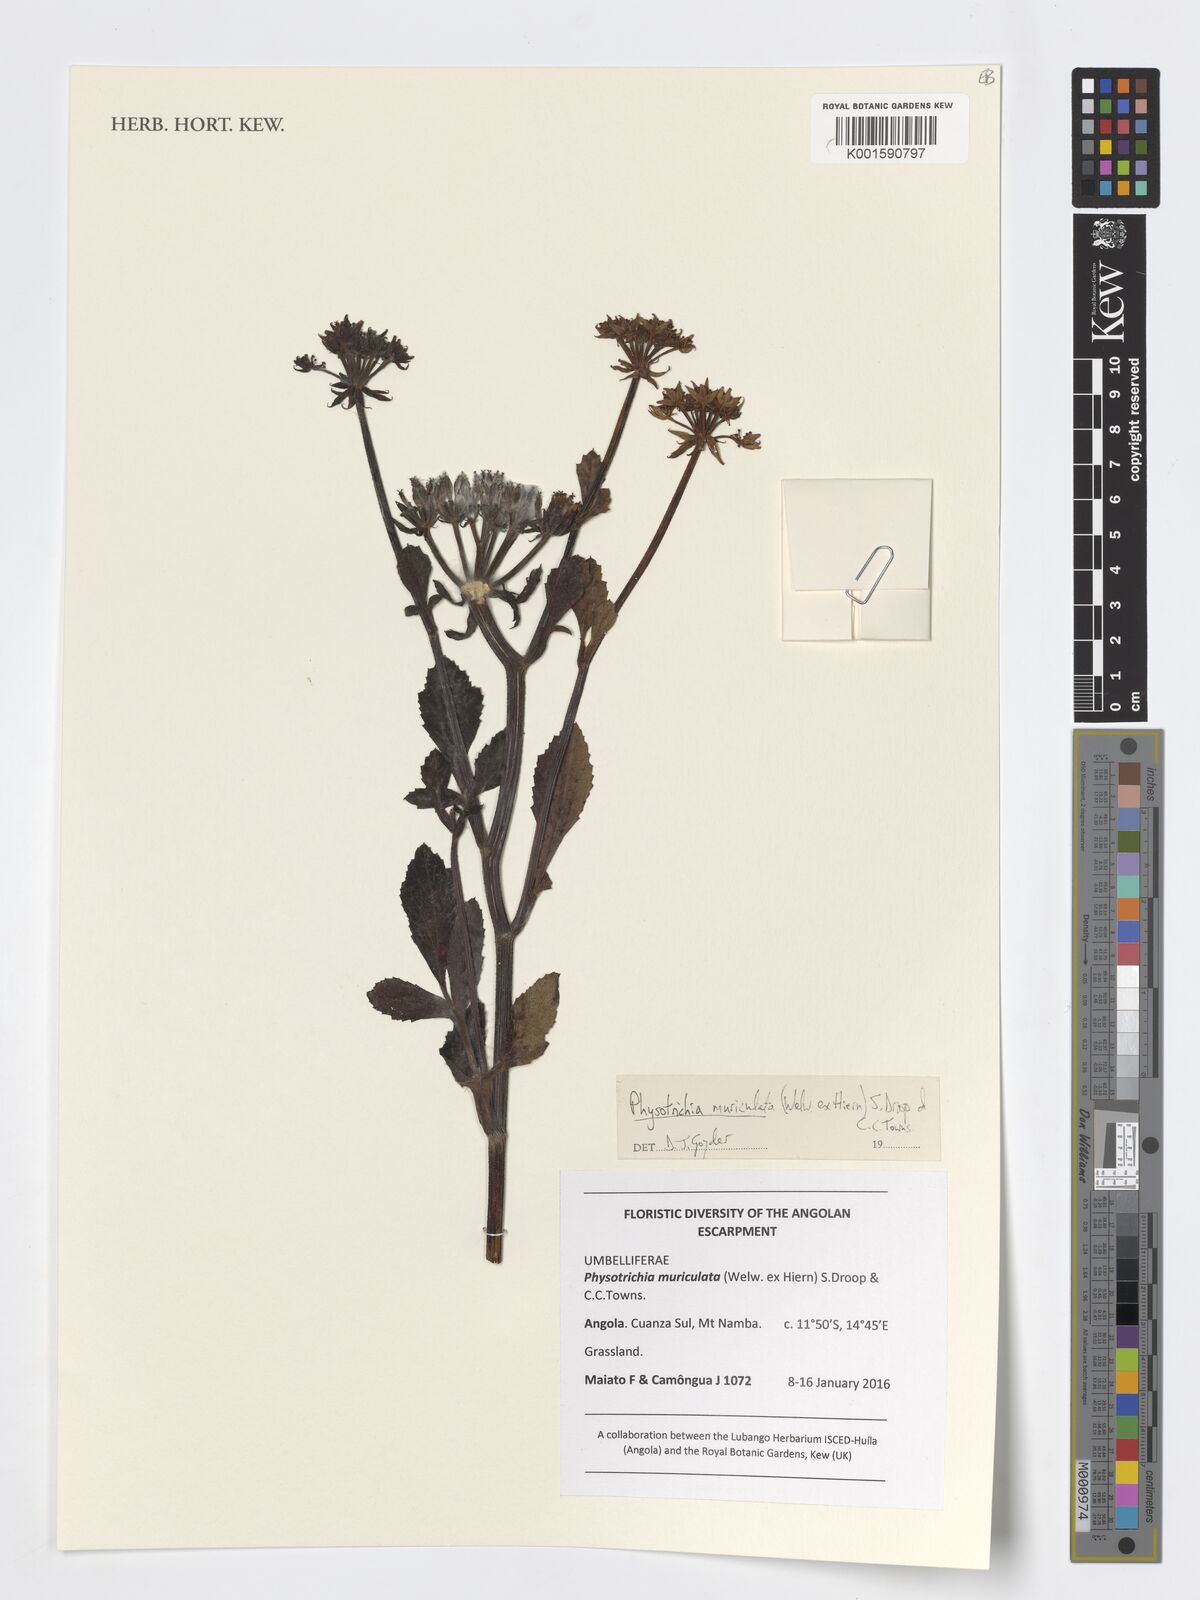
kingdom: Plantae
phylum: Tracheophyta
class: Magnoliopsida
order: Apiales
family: Apiaceae
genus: Physotrichia
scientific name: Physotrichia muriculata
